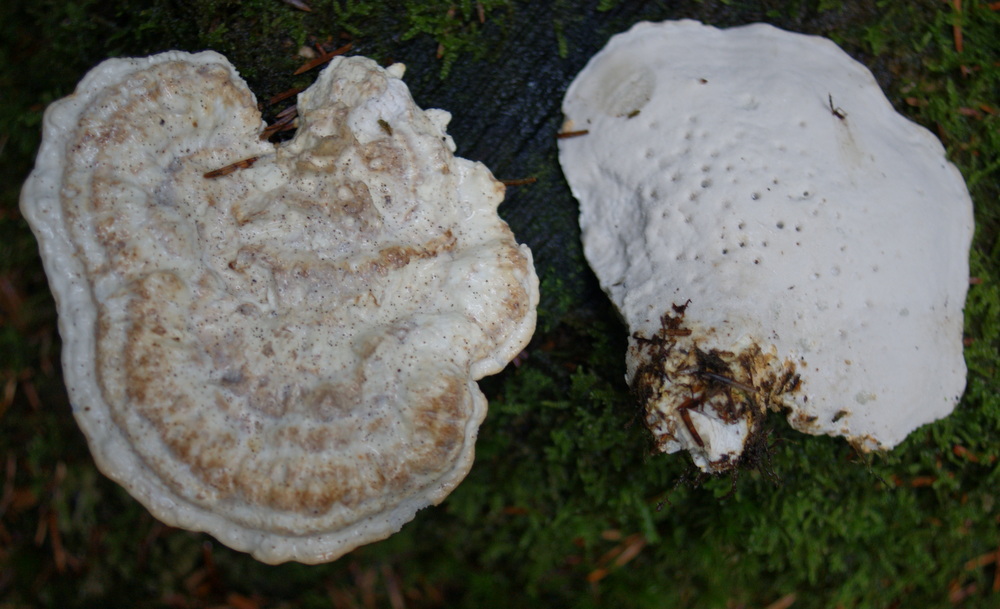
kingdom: Fungi
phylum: Basidiomycota
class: Agaricomycetes
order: Polyporales
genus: Calcipostia
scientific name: Calcipostia guttulata
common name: dråbe-kødporesvamp
